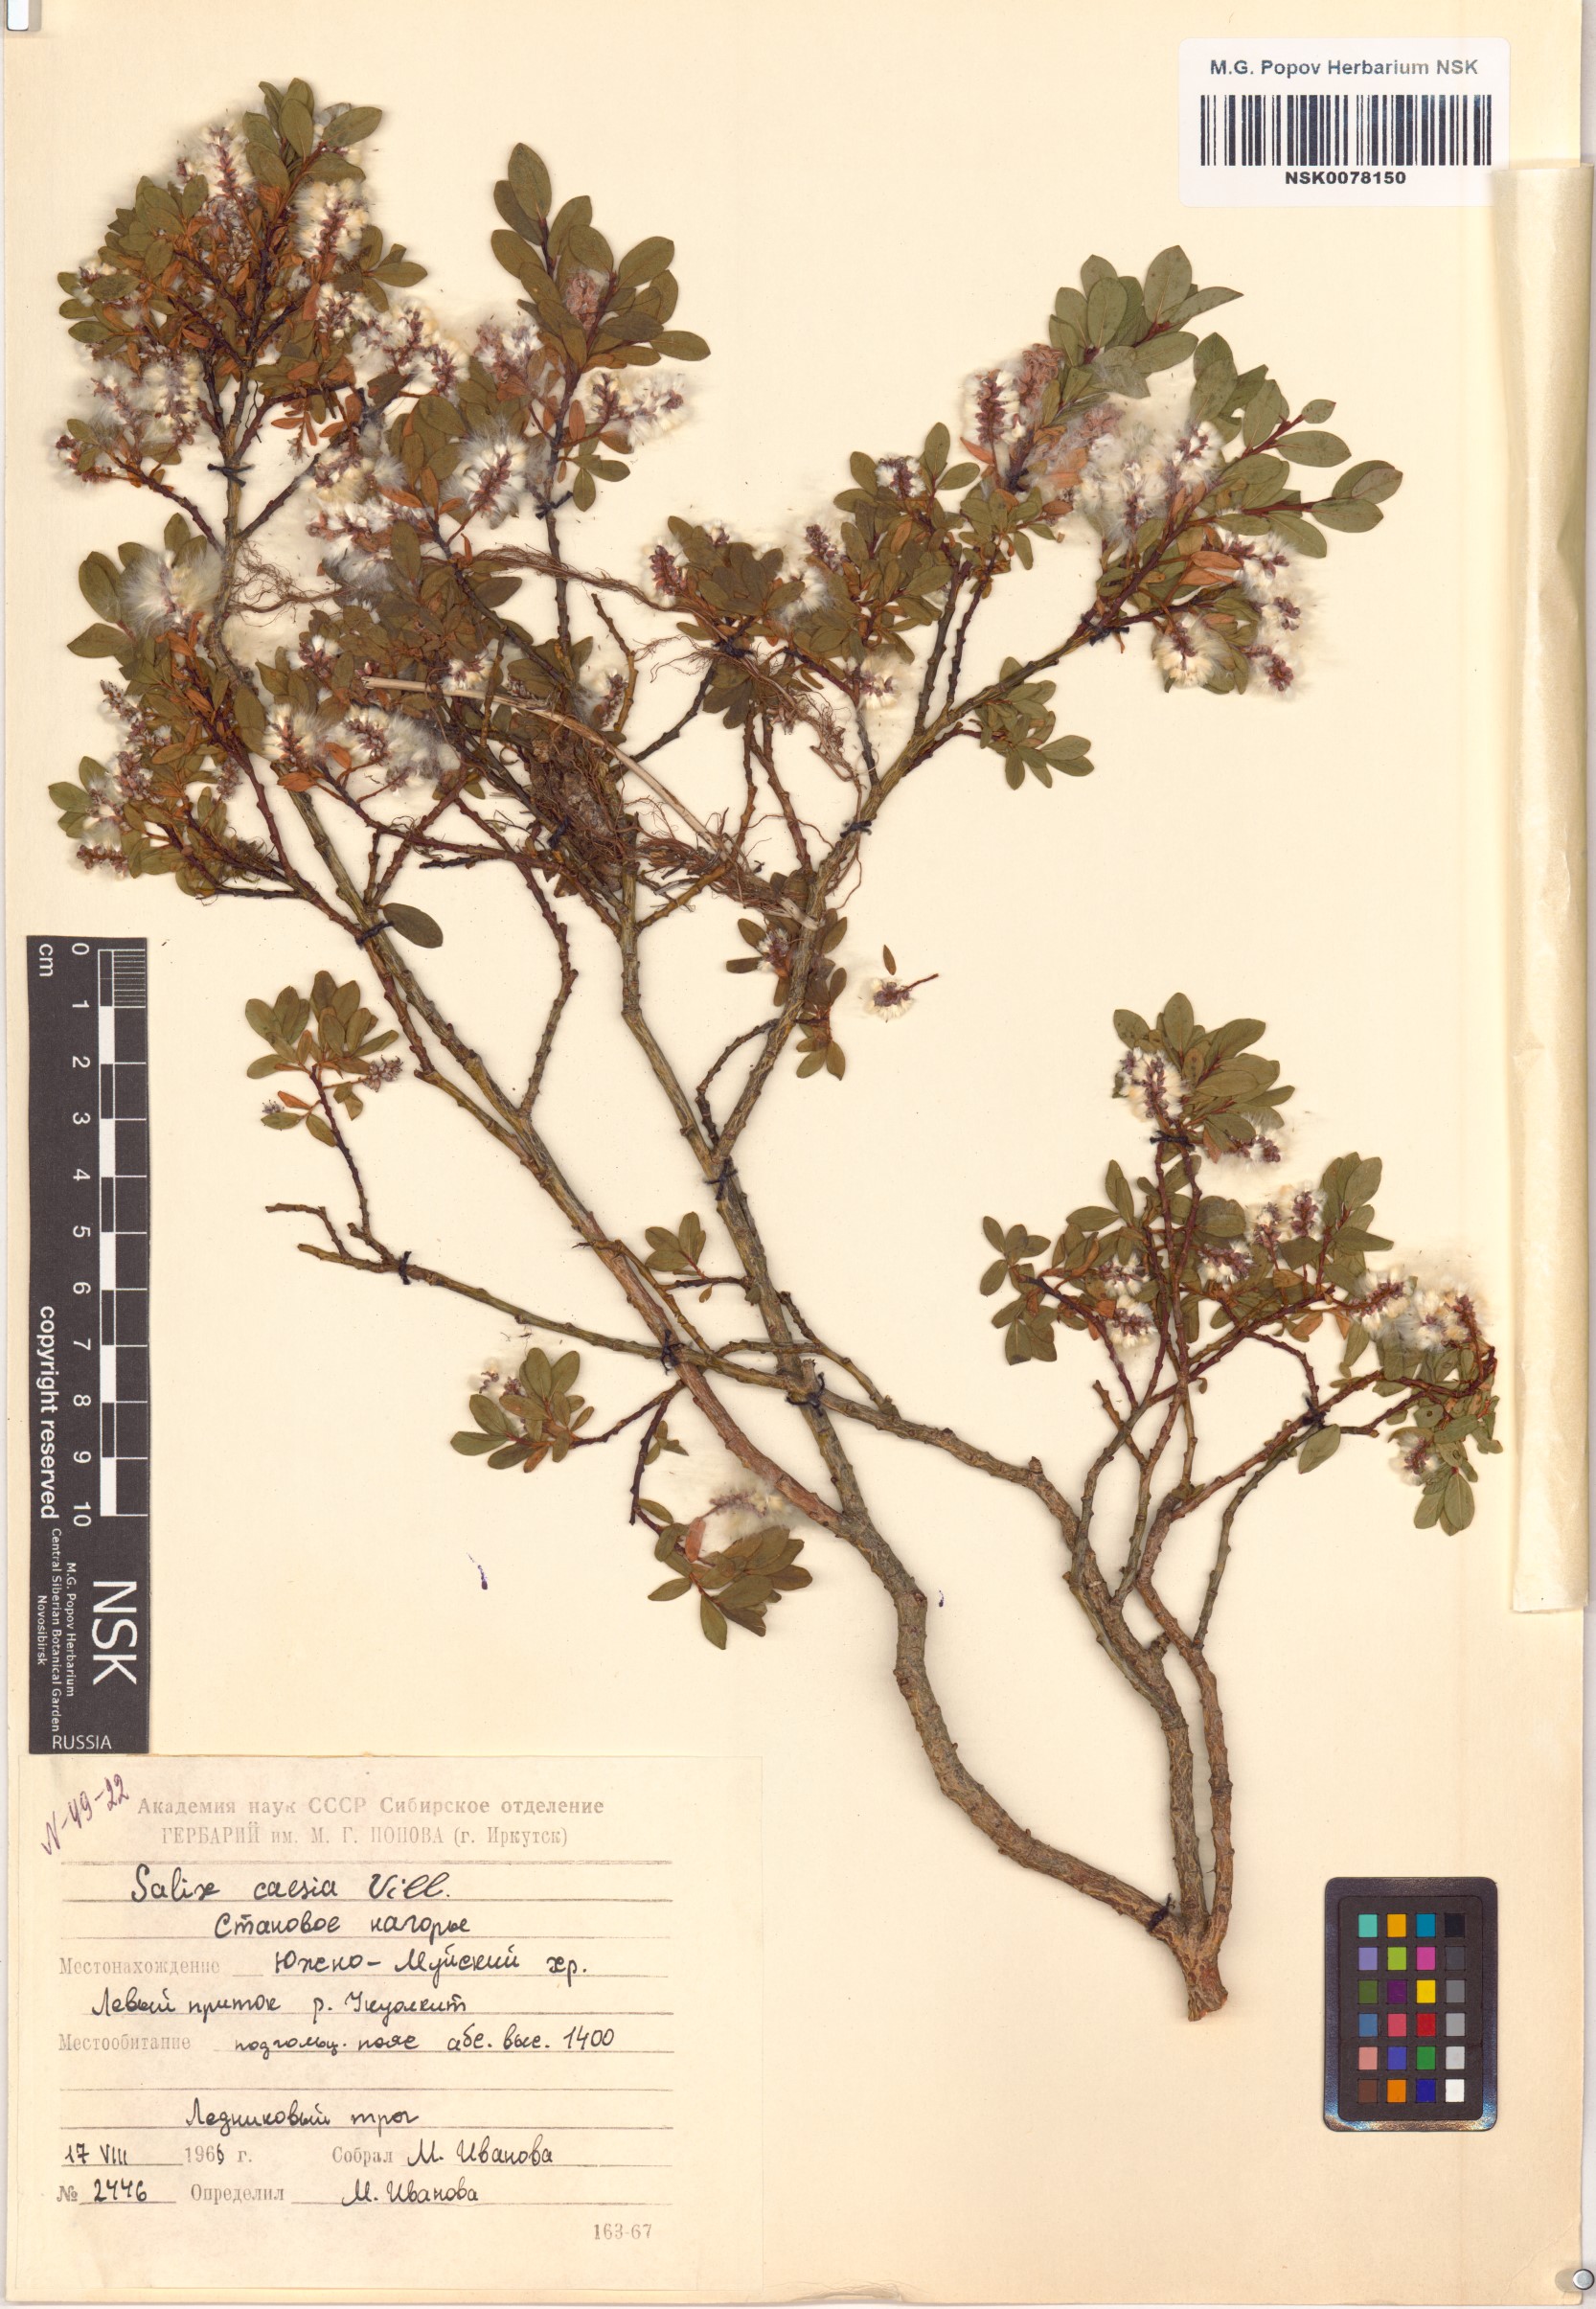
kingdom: Plantae
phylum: Tracheophyta
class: Magnoliopsida
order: Malpighiales
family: Salicaceae
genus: Salix
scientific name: Salix caesia
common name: Blue willow
